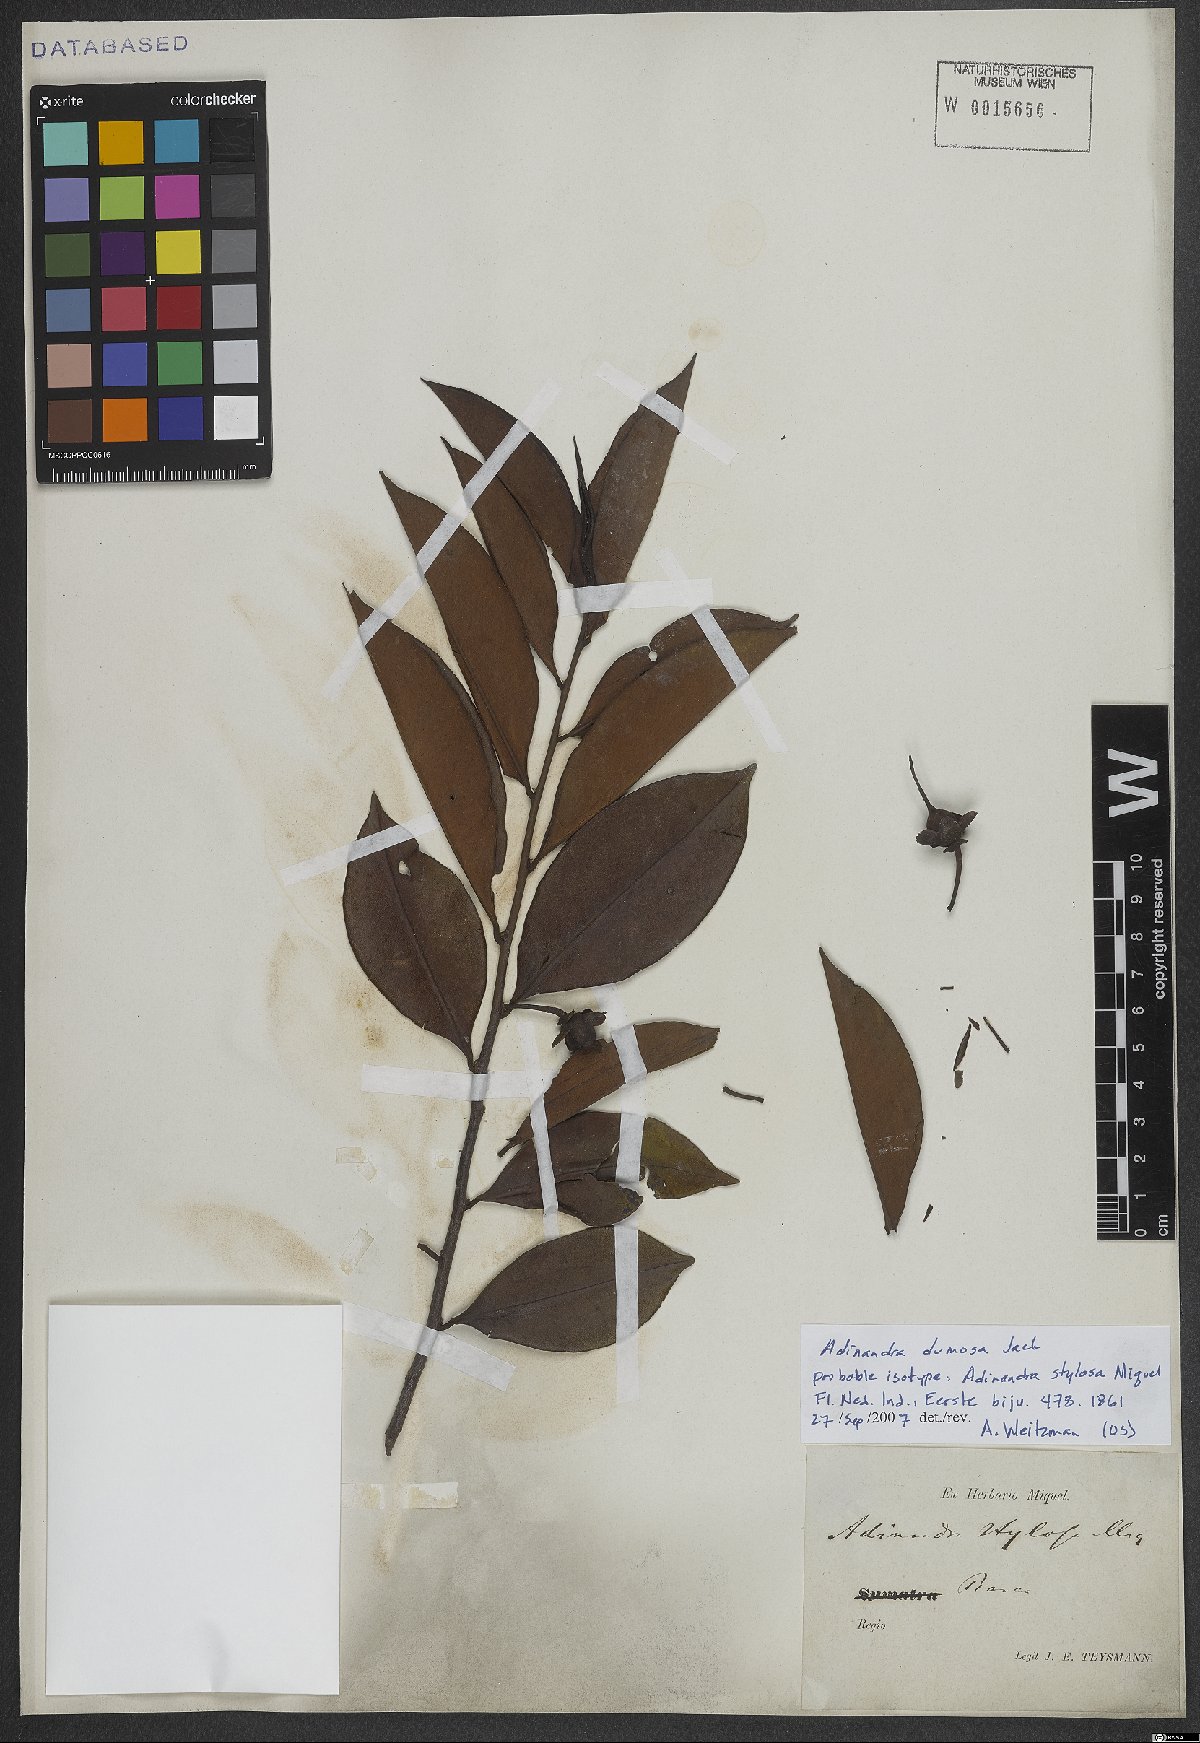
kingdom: Plantae
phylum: Tracheophyta
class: Magnoliopsida
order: Ericales
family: Pentaphylacaceae
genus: Adinandra
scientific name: Adinandra dumosa
